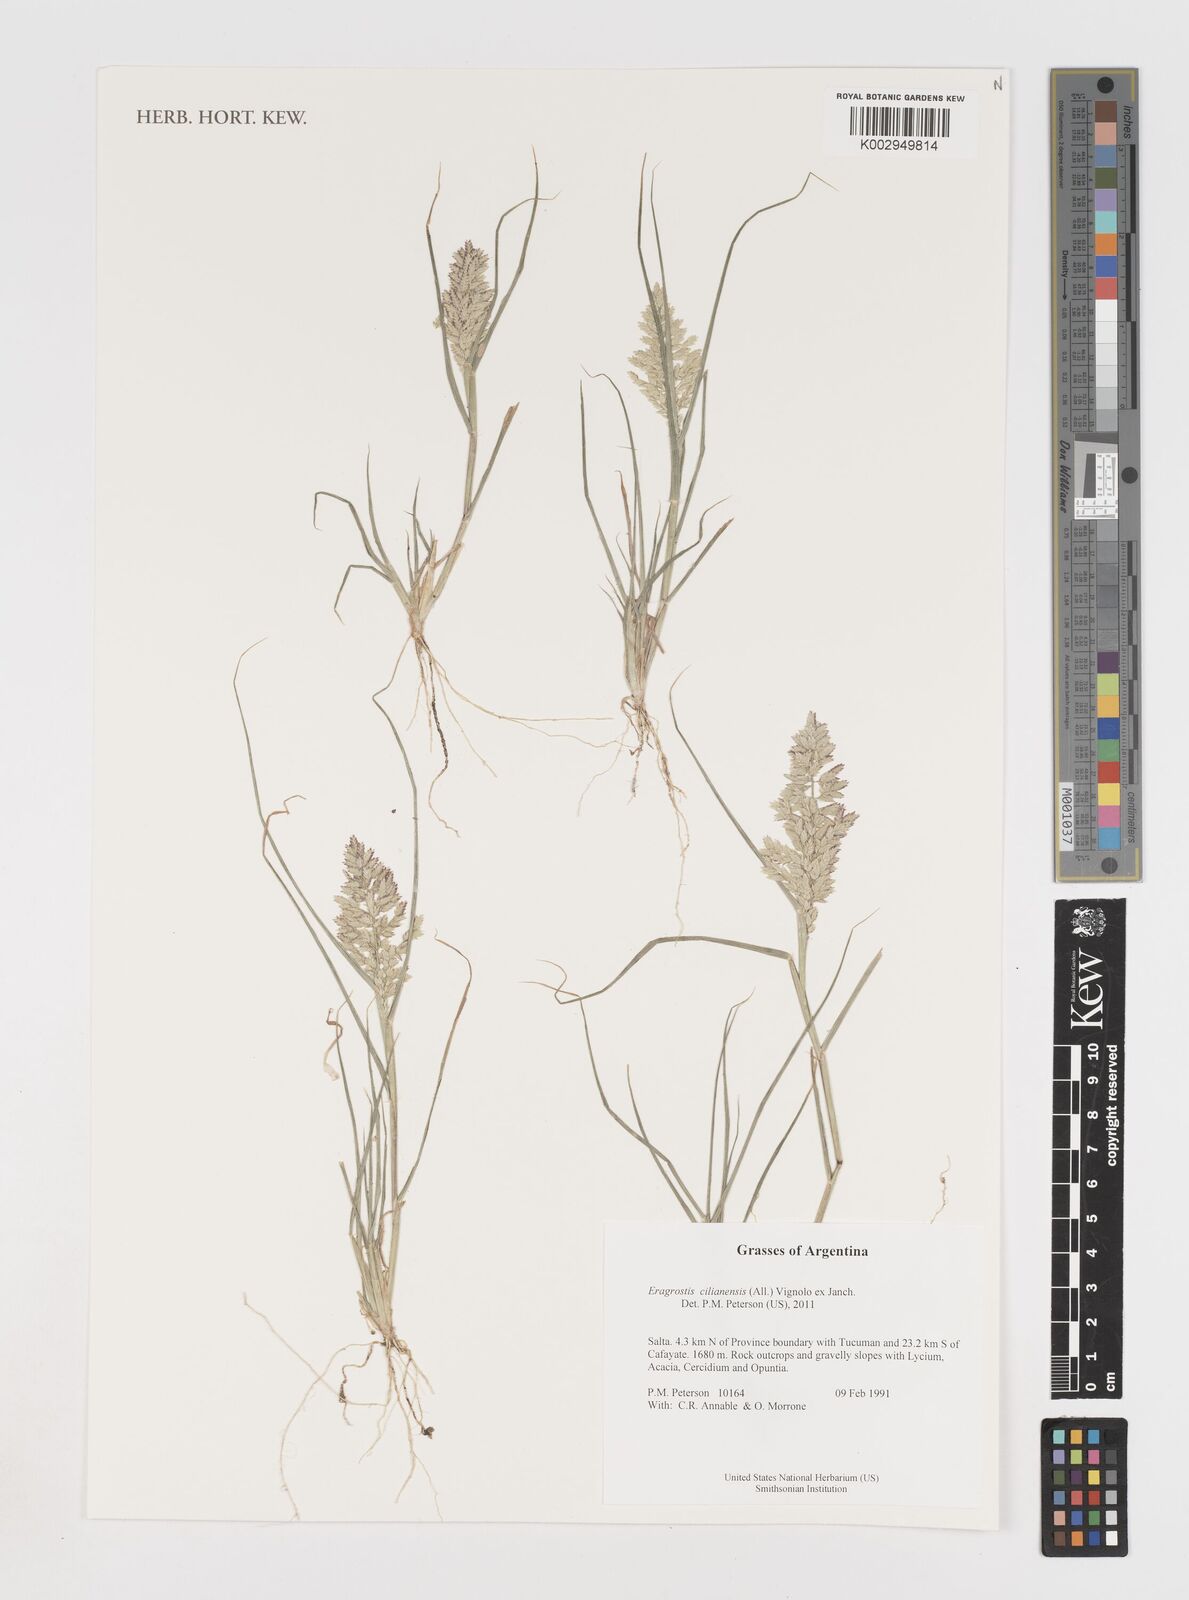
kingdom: Plantae
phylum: Tracheophyta
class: Liliopsida
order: Poales
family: Poaceae
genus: Eragrostis
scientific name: Eragrostis cilianensis
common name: Stinkgrass
